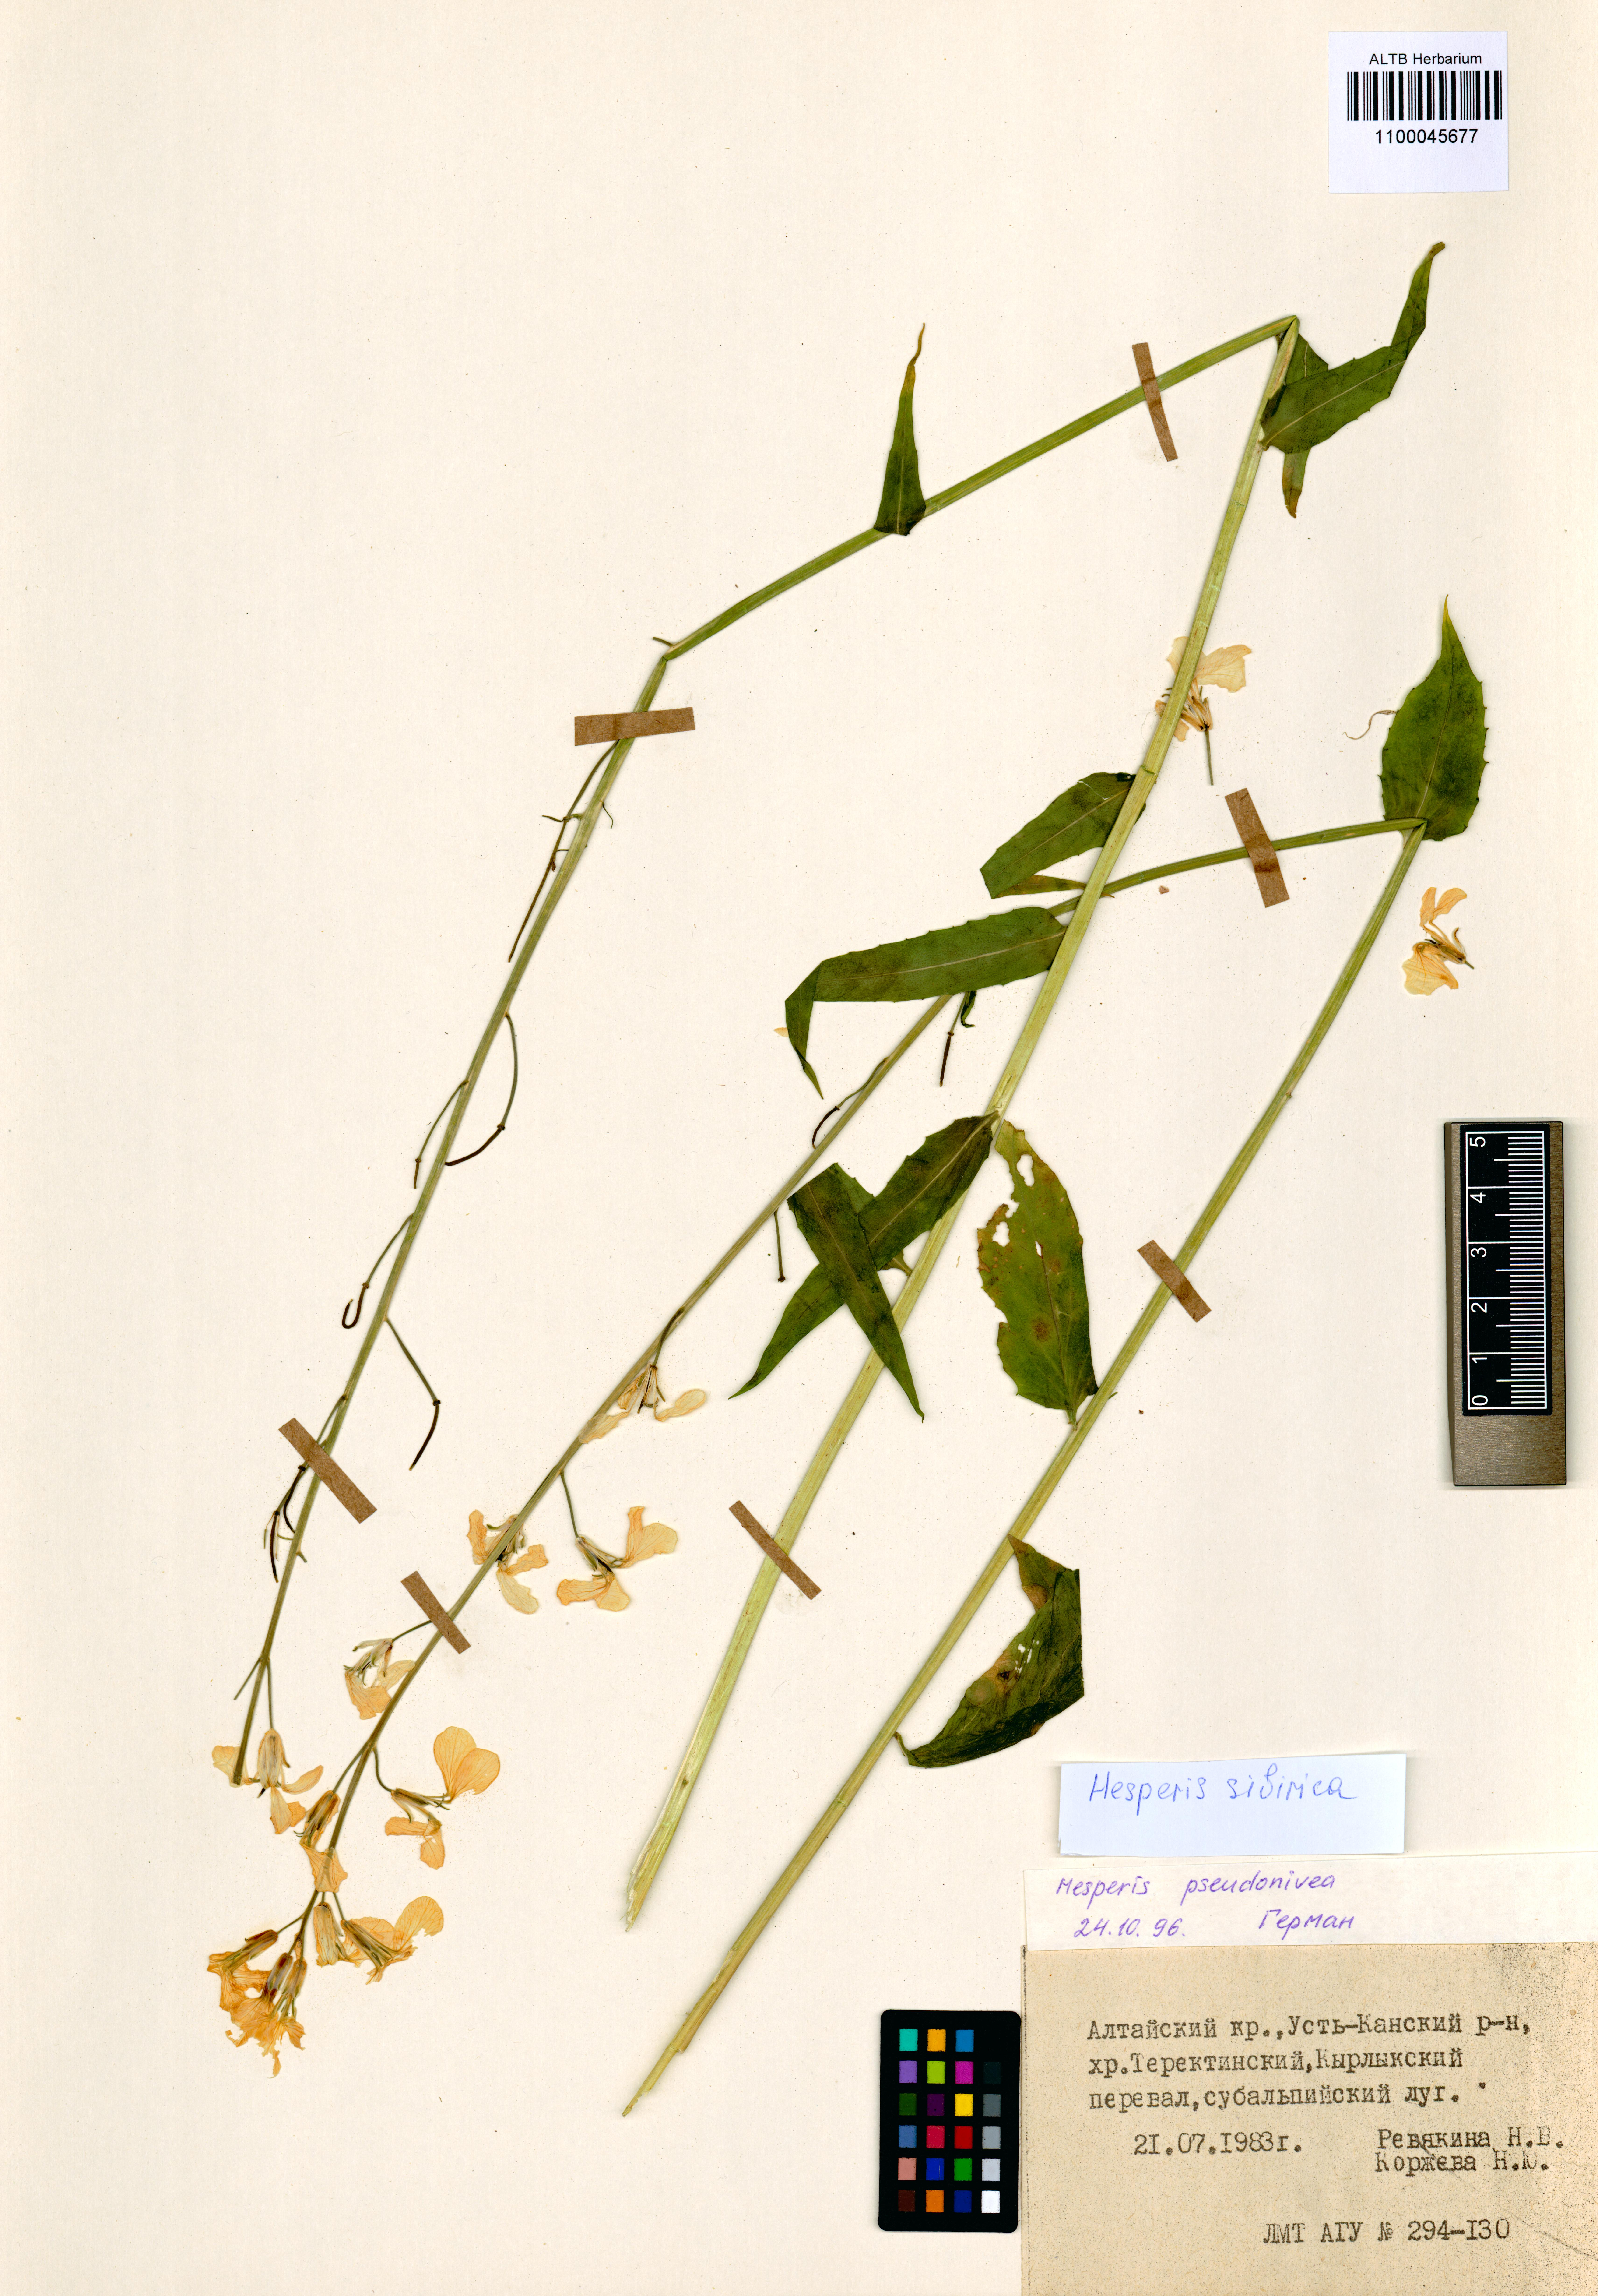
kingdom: Plantae
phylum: Tracheophyta
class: Magnoliopsida
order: Brassicales
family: Brassicaceae
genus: Hesperis
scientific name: Hesperis sibirica
